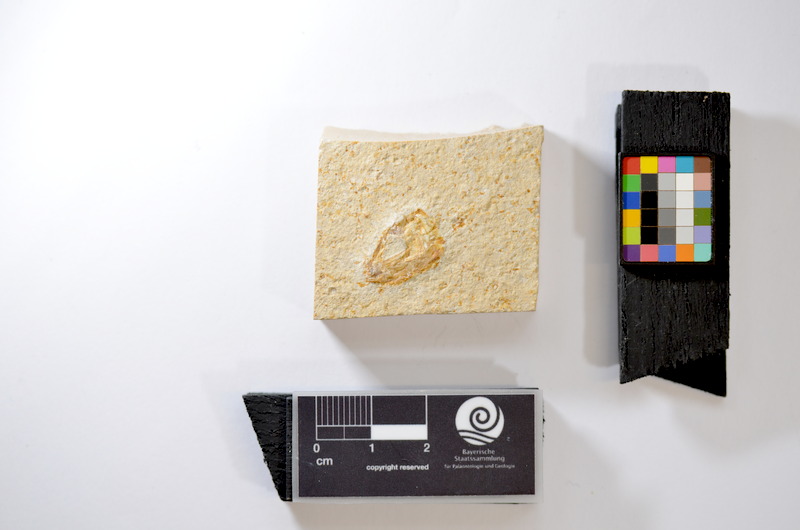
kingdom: Animalia
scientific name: Animalia
